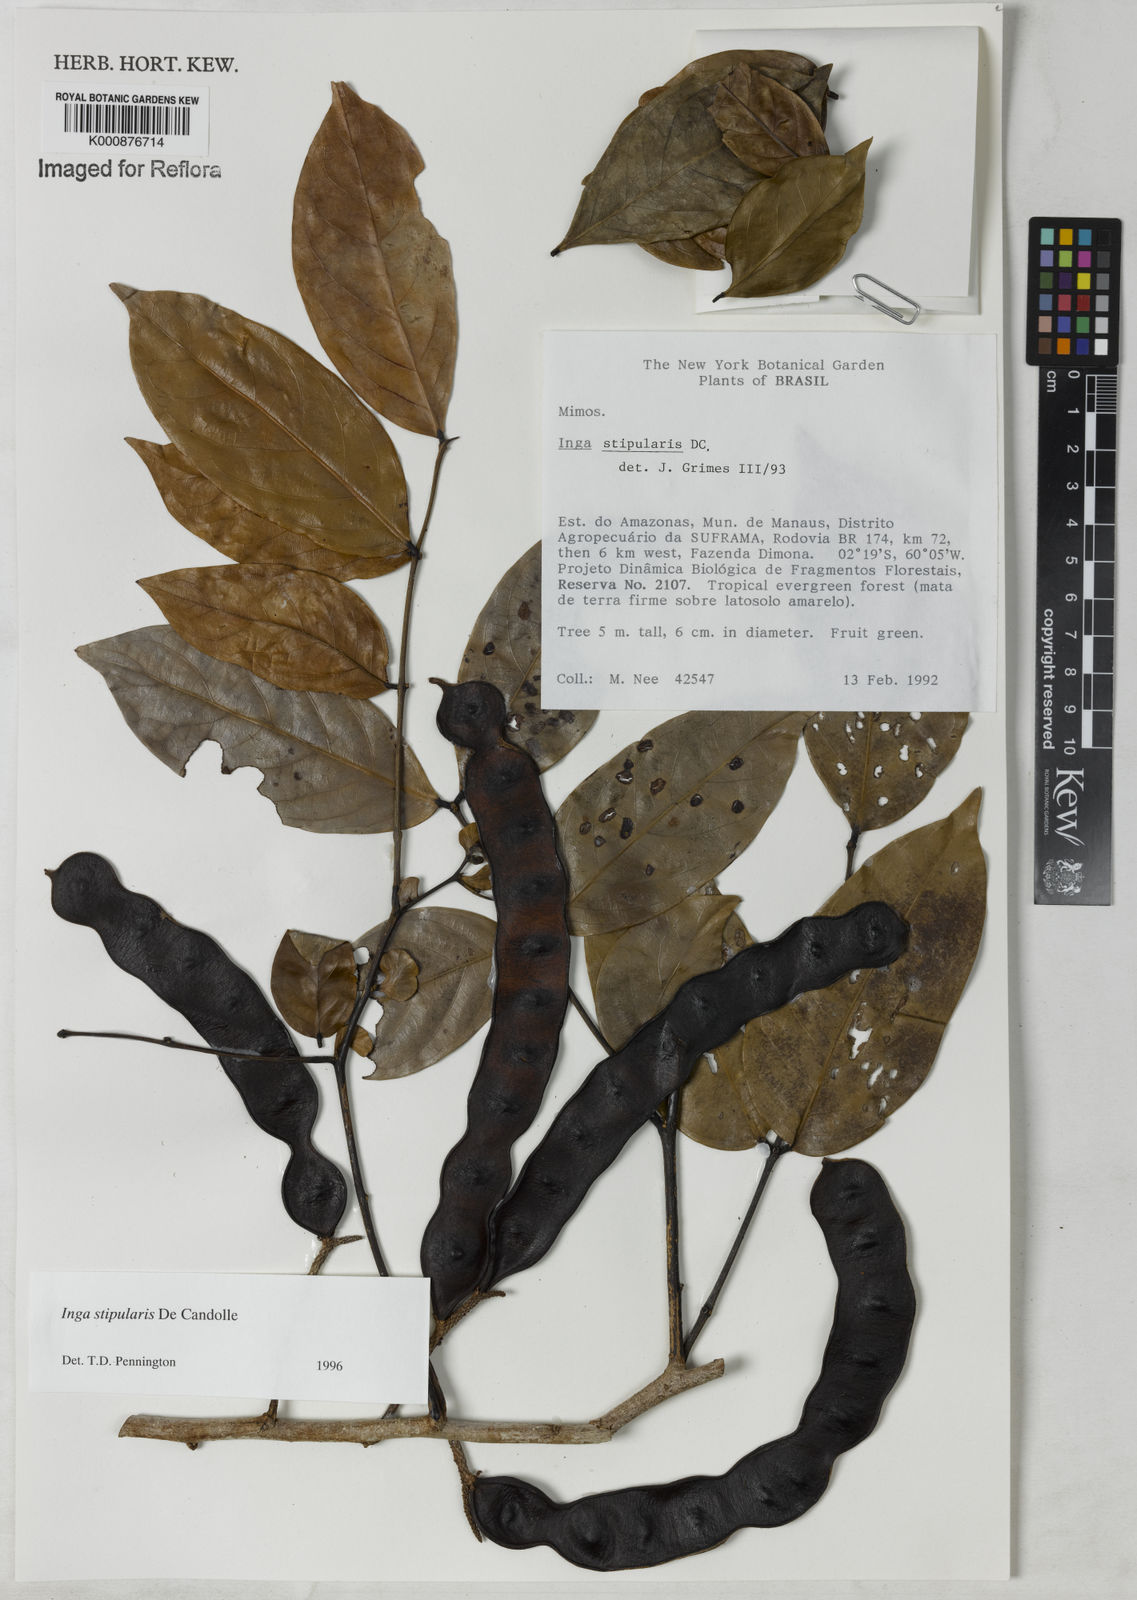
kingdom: Plantae
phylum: Tracheophyta
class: Magnoliopsida
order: Fabales
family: Fabaceae
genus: Inga
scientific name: Inga stipularis
